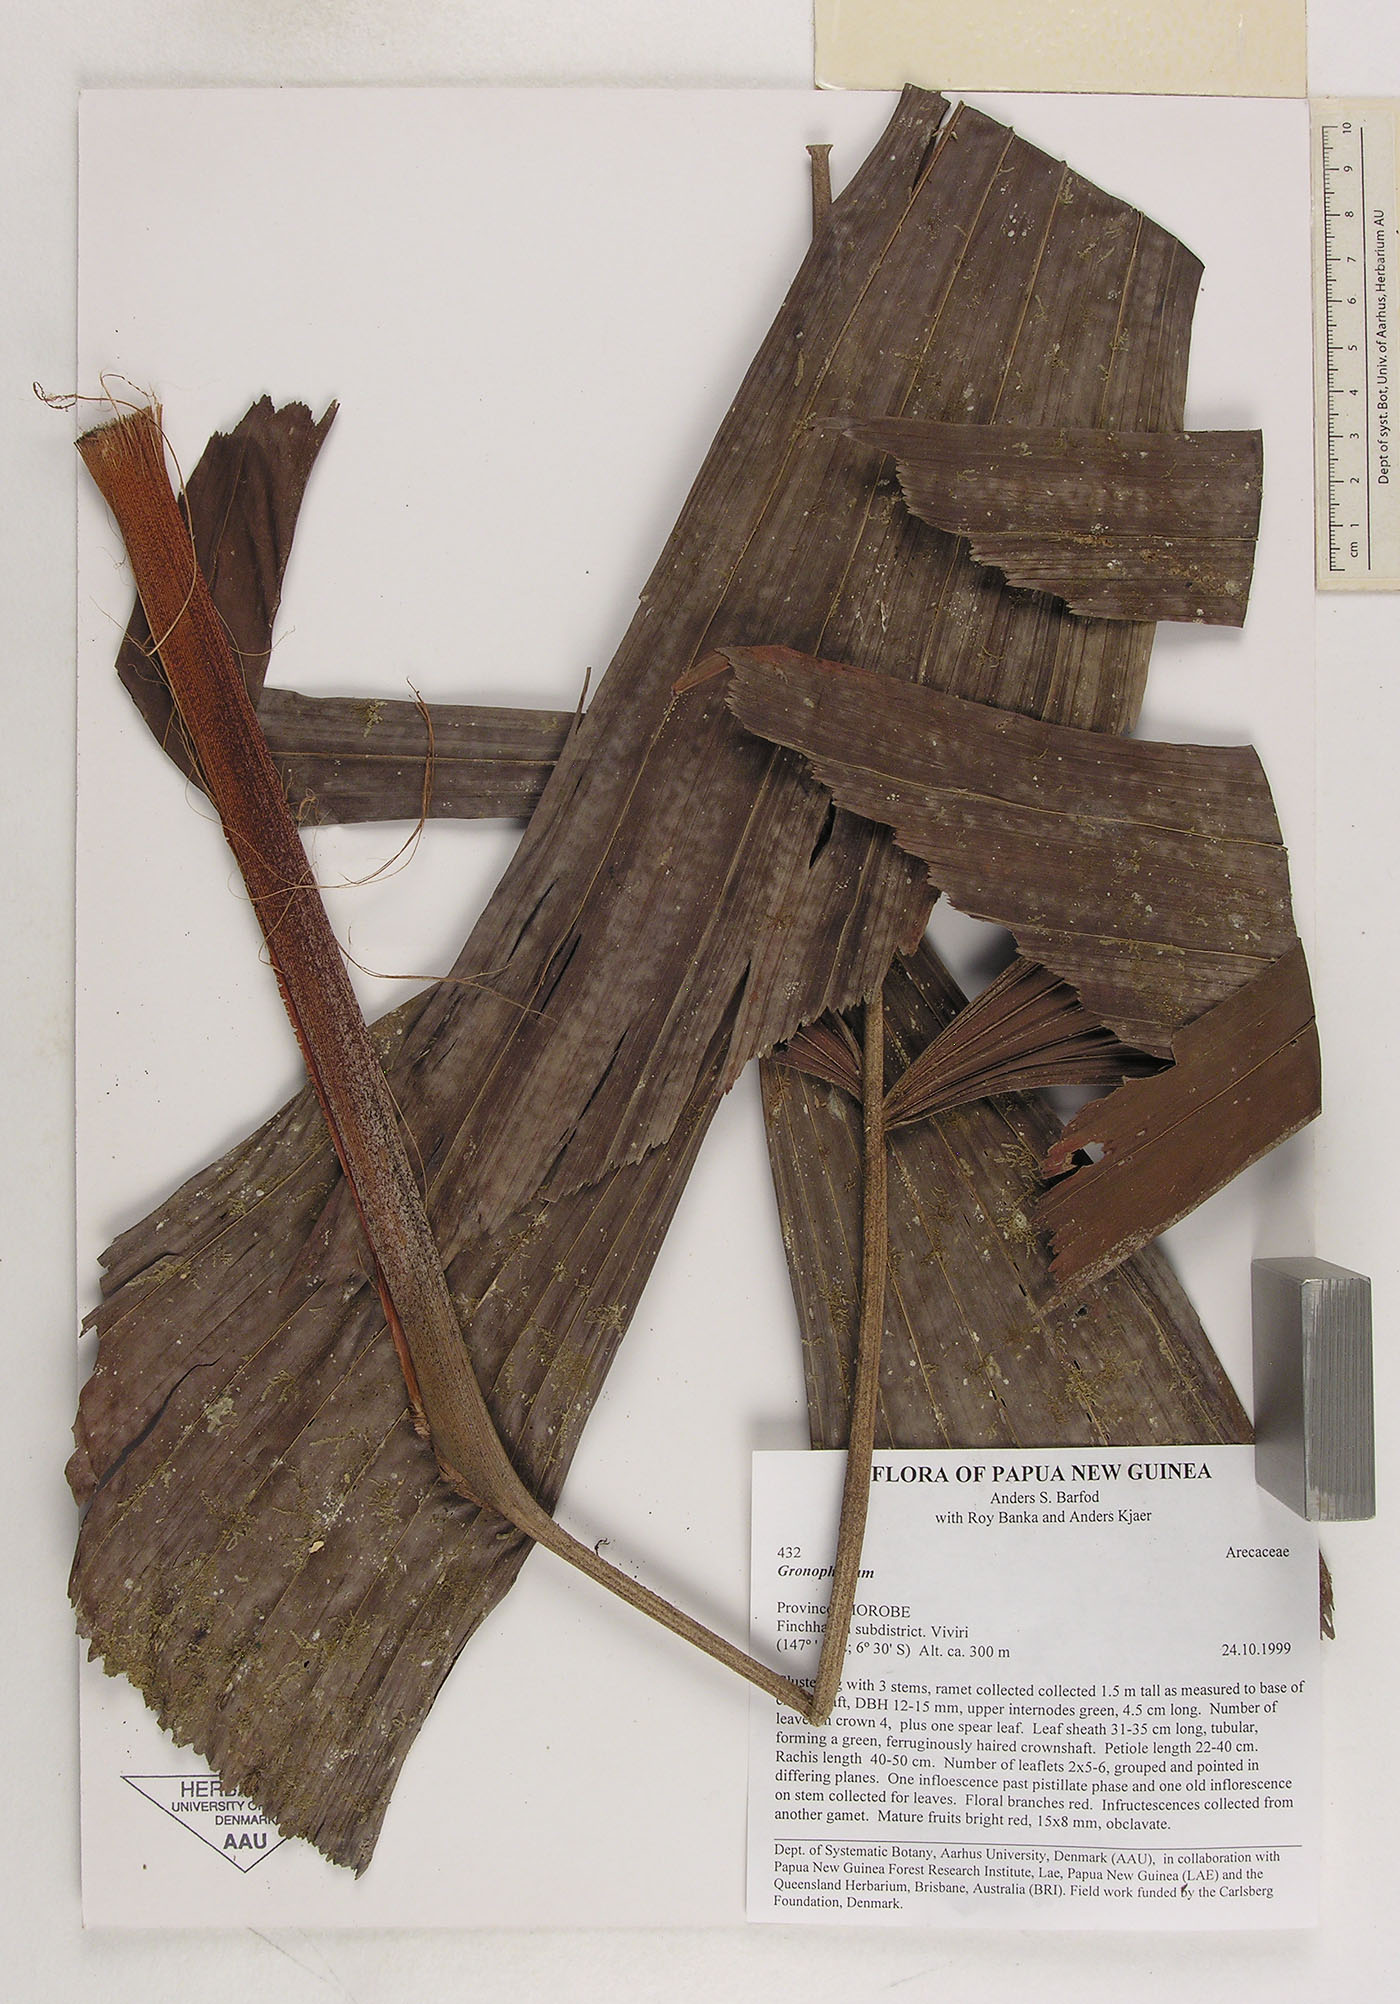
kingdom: Plantae
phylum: Tracheophyta
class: Liliopsida
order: Arecales
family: Arecaceae
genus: Hydriastele
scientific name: Hydriastele
